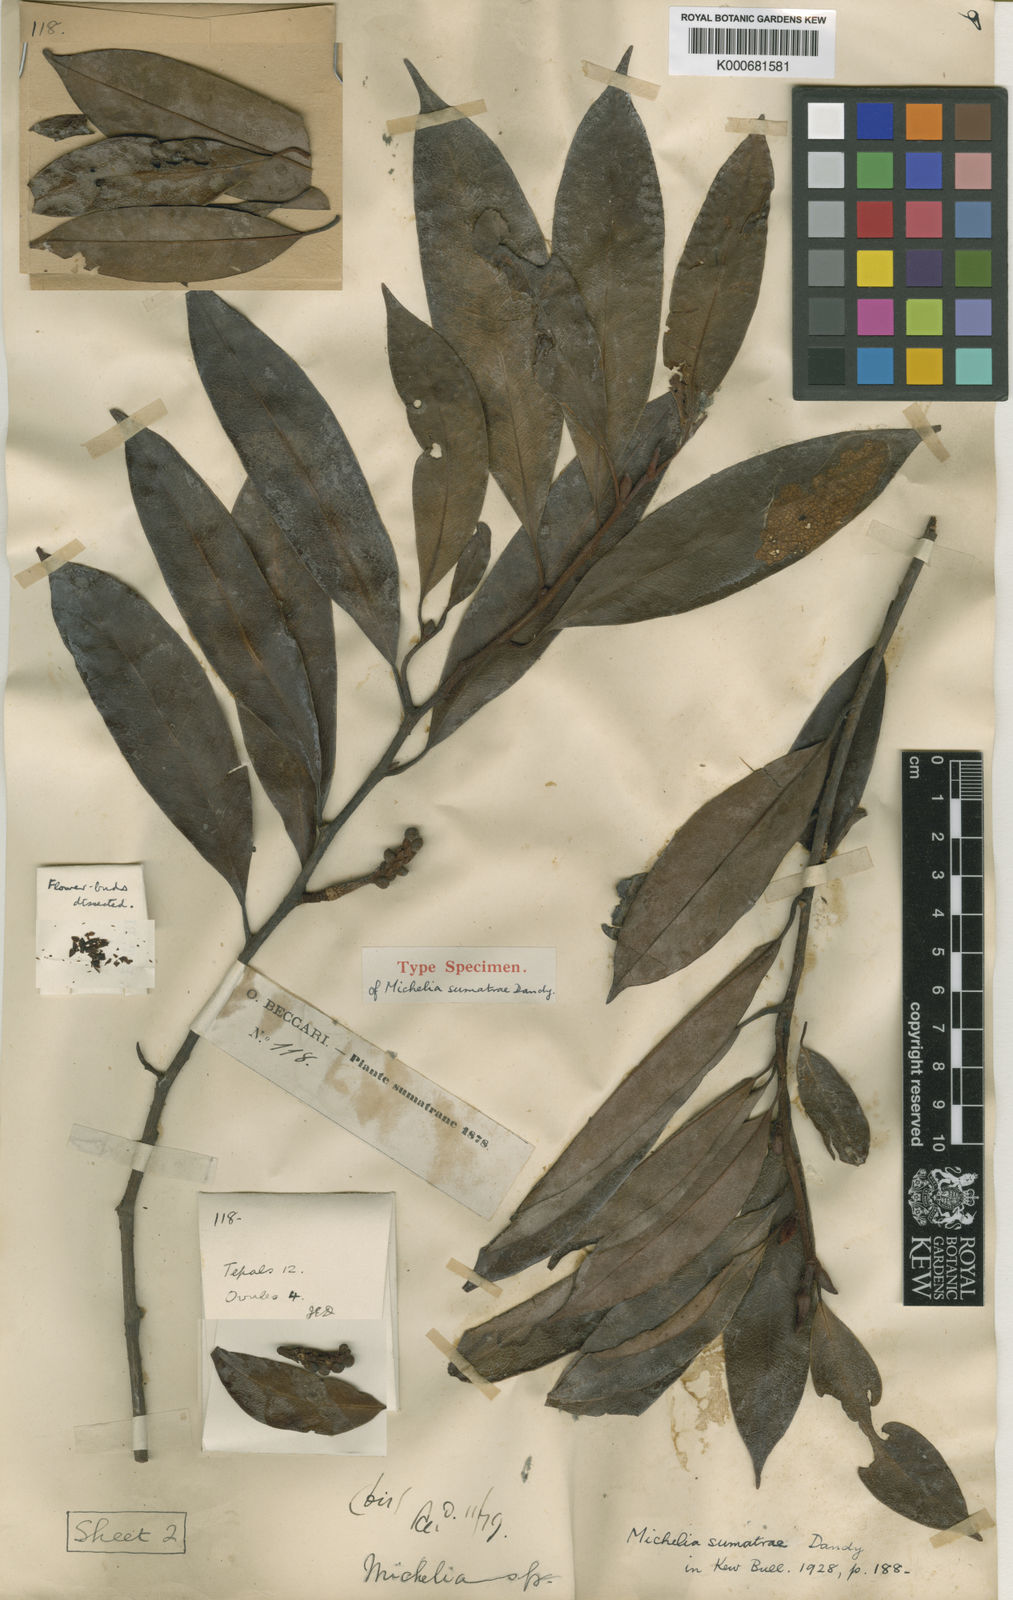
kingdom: Plantae
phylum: Tracheophyta
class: Magnoliopsida
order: Magnoliales
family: Magnoliaceae
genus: Magnolia
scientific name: Magnolia sumatrae
